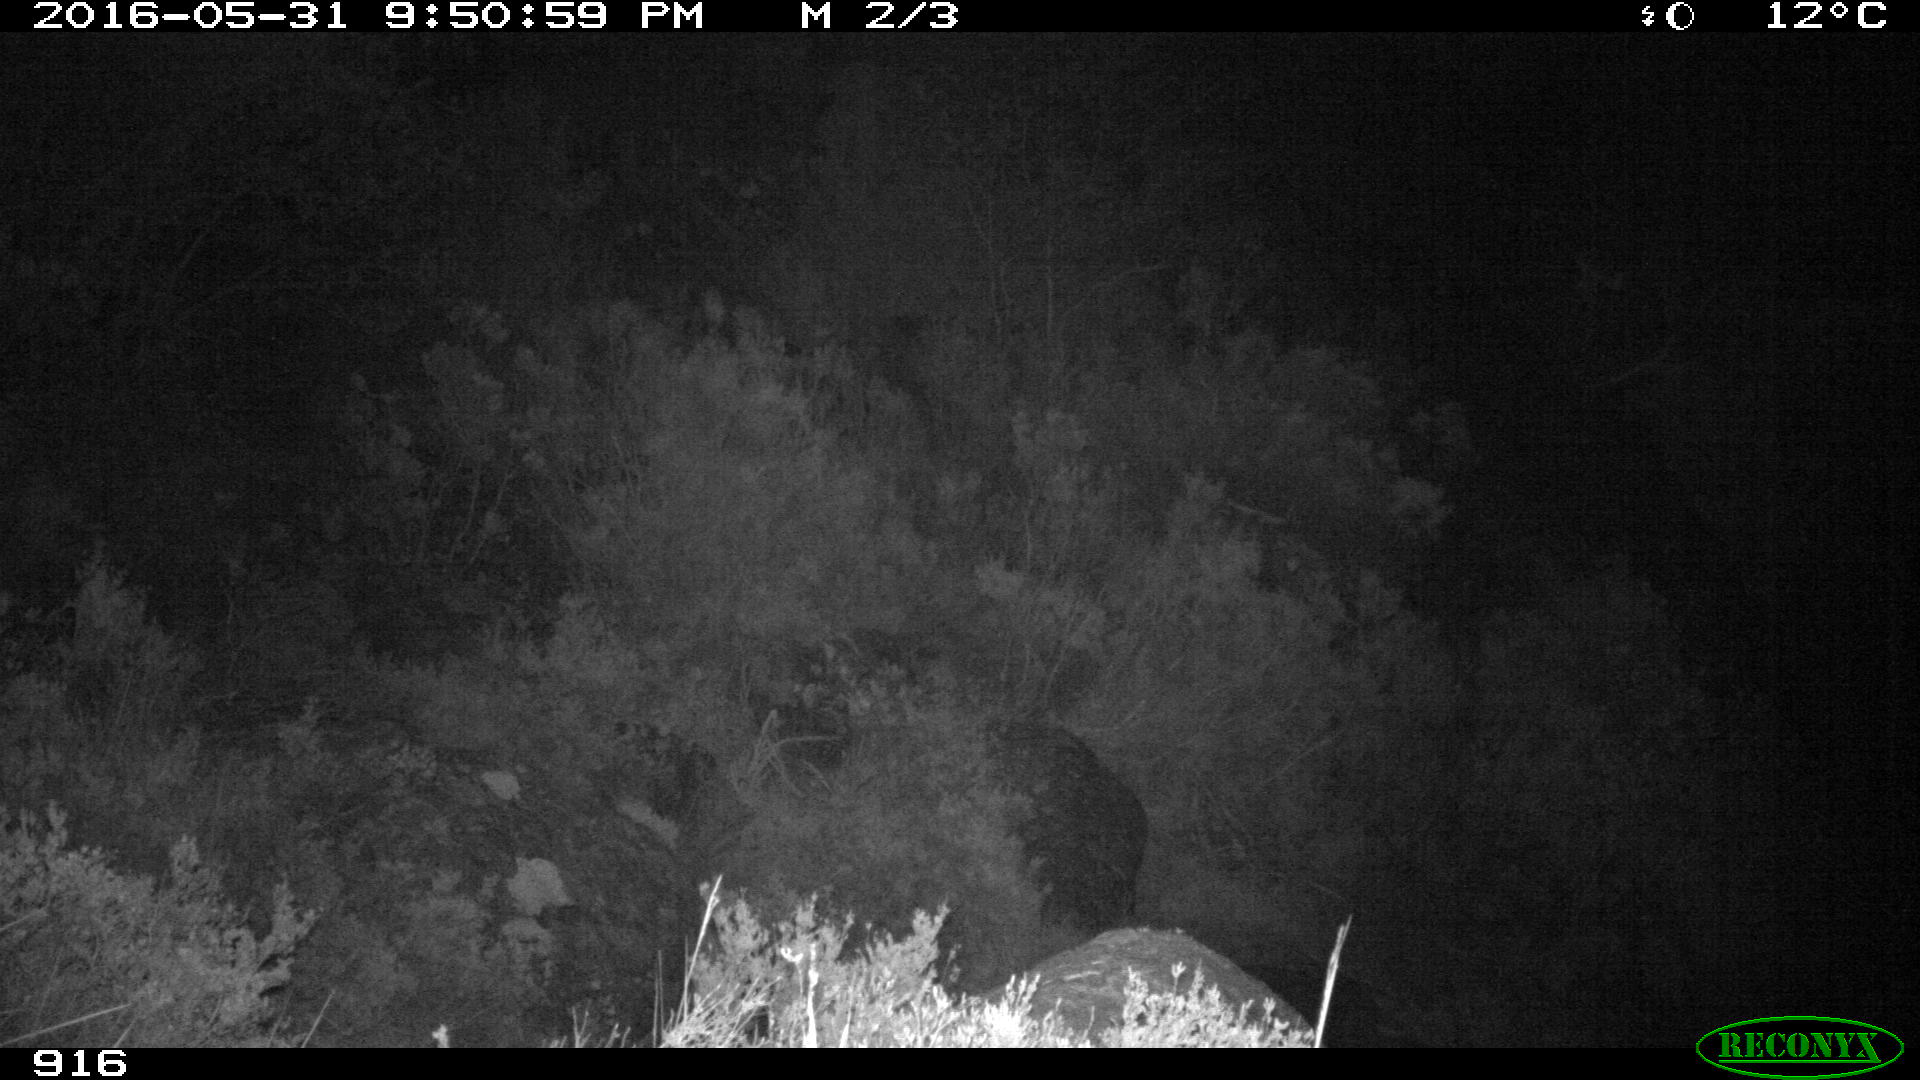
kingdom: Animalia
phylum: Chordata
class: Mammalia
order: Artiodactyla
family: Cervidae
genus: Capreolus
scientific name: Capreolus capreolus
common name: Western roe deer
